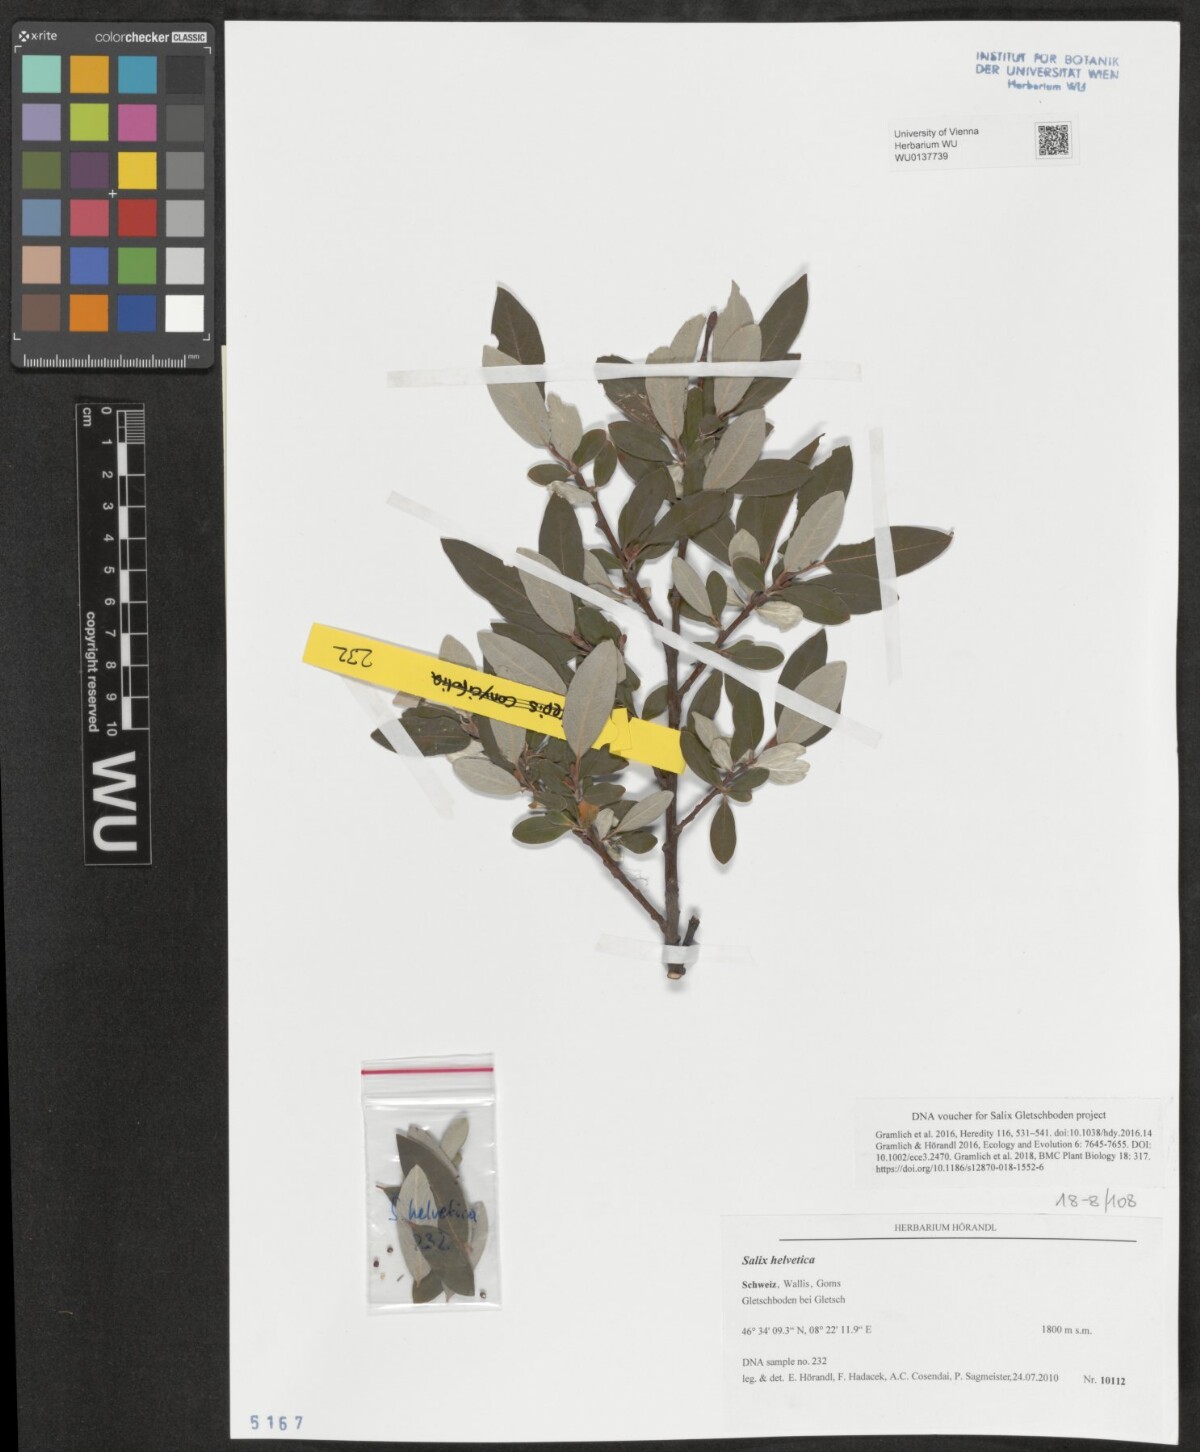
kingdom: Plantae
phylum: Tracheophyta
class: Magnoliopsida
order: Malpighiales
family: Salicaceae
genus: Salix
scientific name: Salix helvetica
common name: Swiss willow
